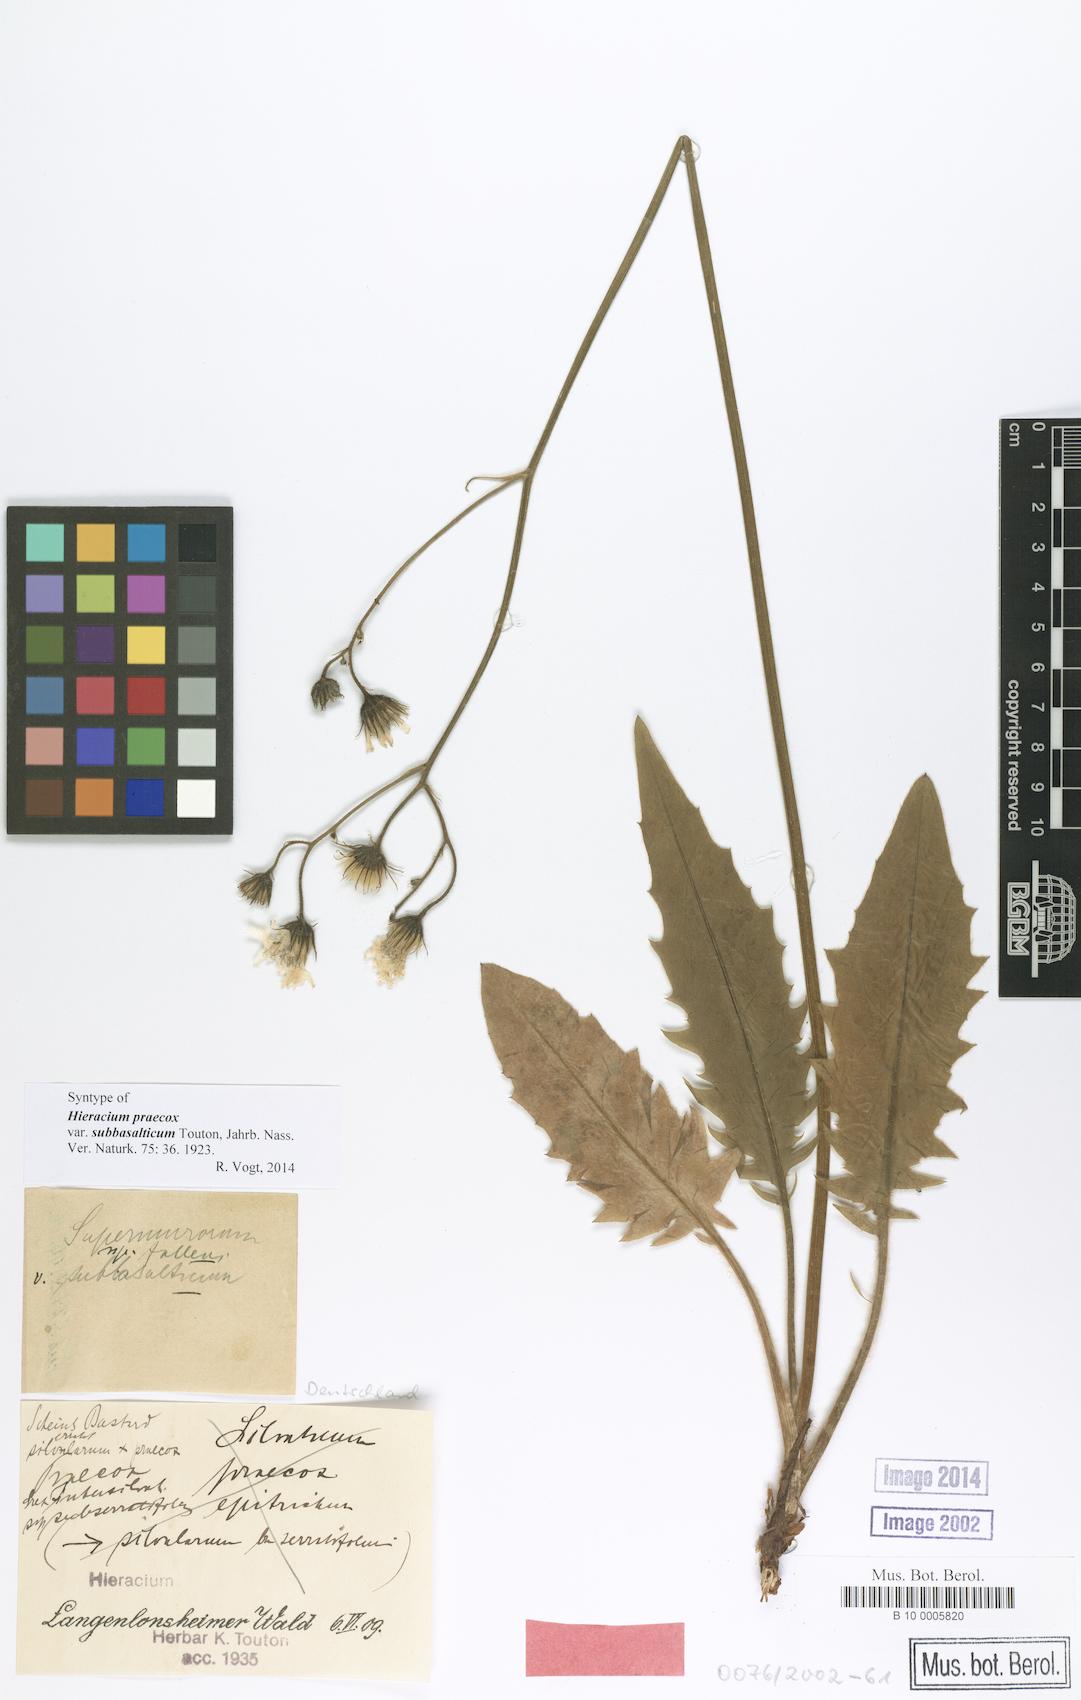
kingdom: Plantae
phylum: Tracheophyta
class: Magnoliopsida
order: Asterales
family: Asteraceae
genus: Hieracium
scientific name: Hieracium praecox
